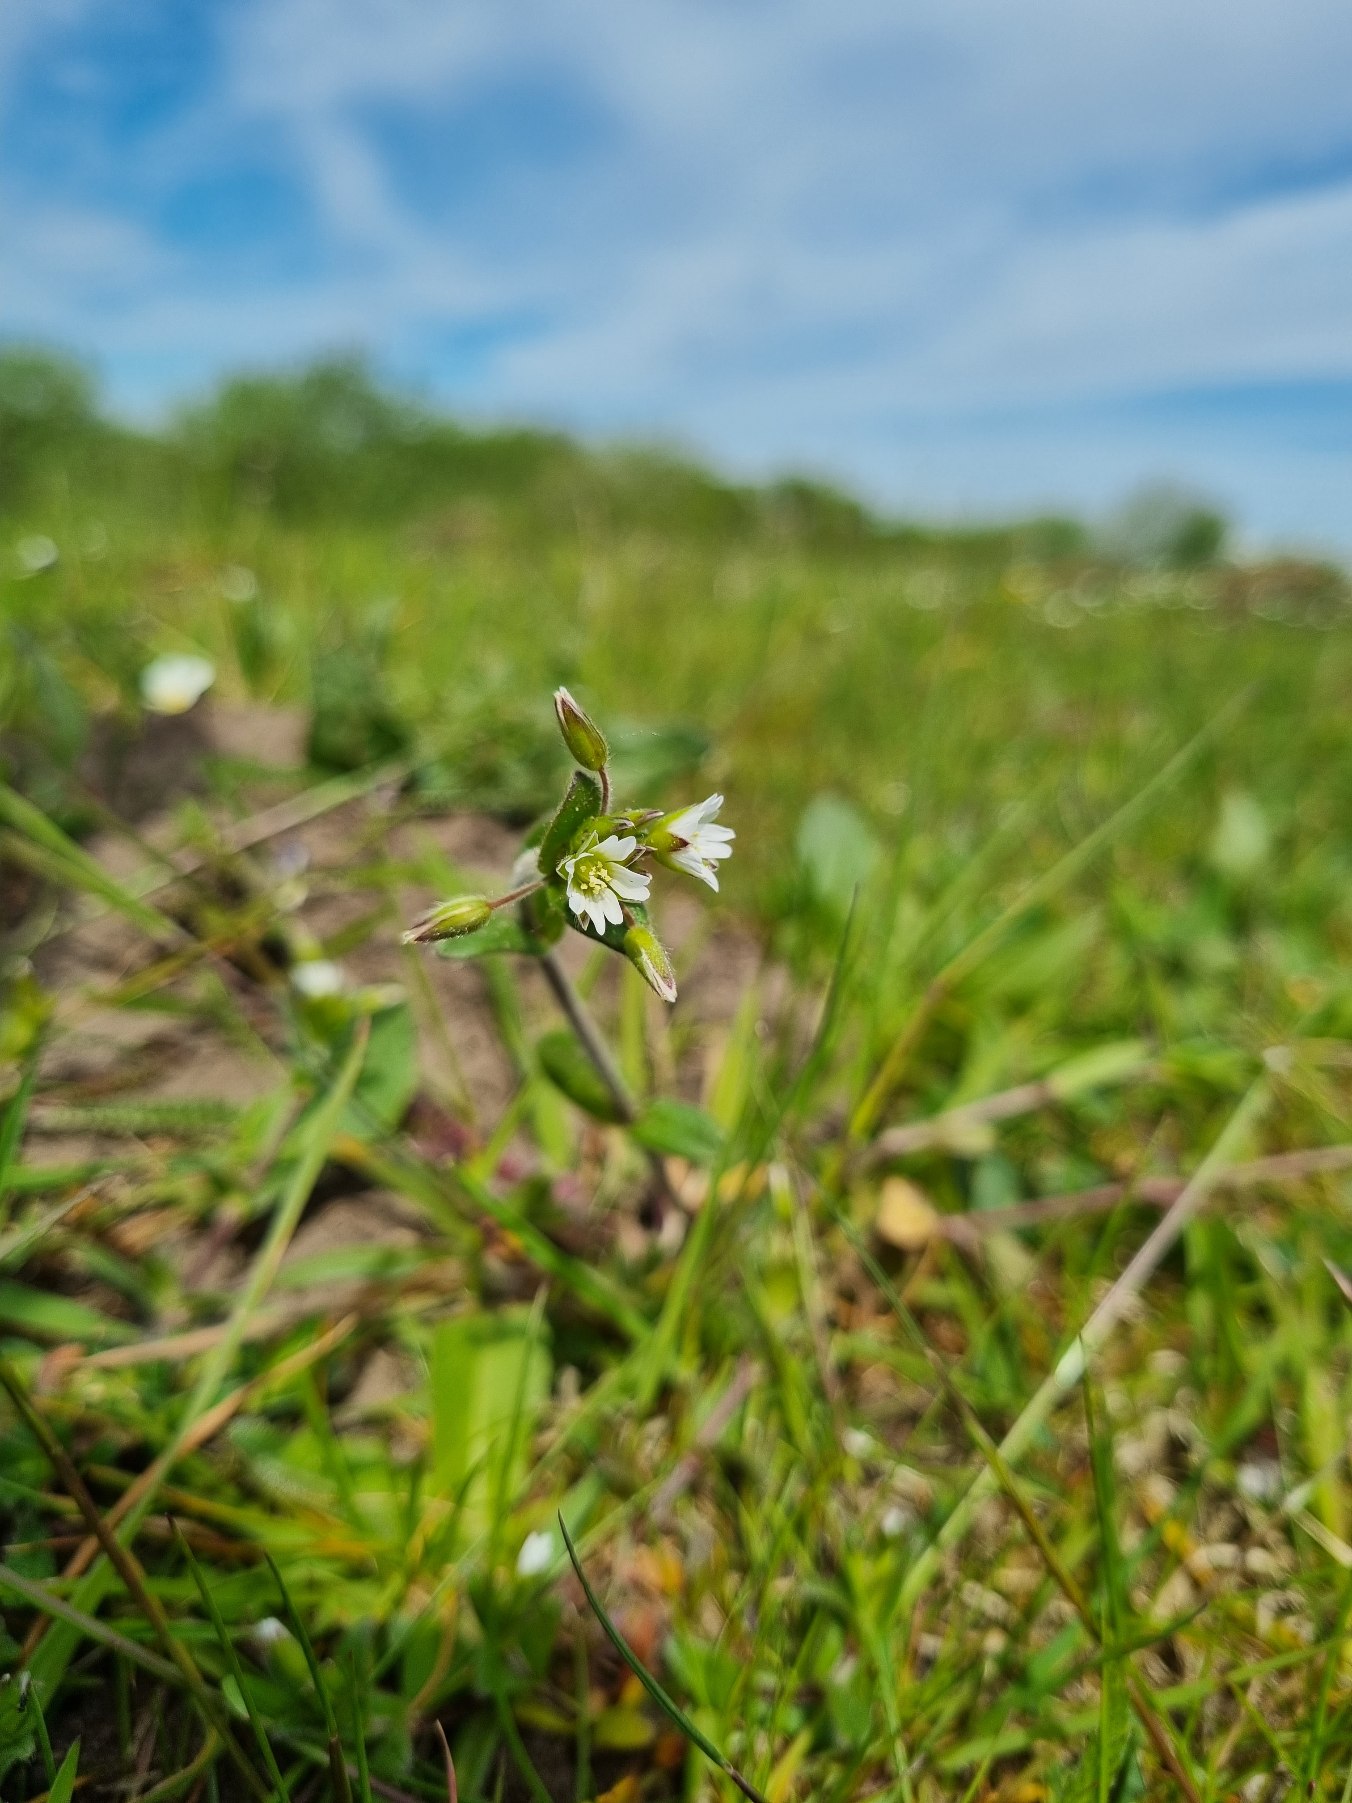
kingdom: Plantae
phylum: Tracheophyta
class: Magnoliopsida
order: Caryophyllales
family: Caryophyllaceae
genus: Cerastium
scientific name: Cerastium fontanum
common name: Almindelig hønsetarm
